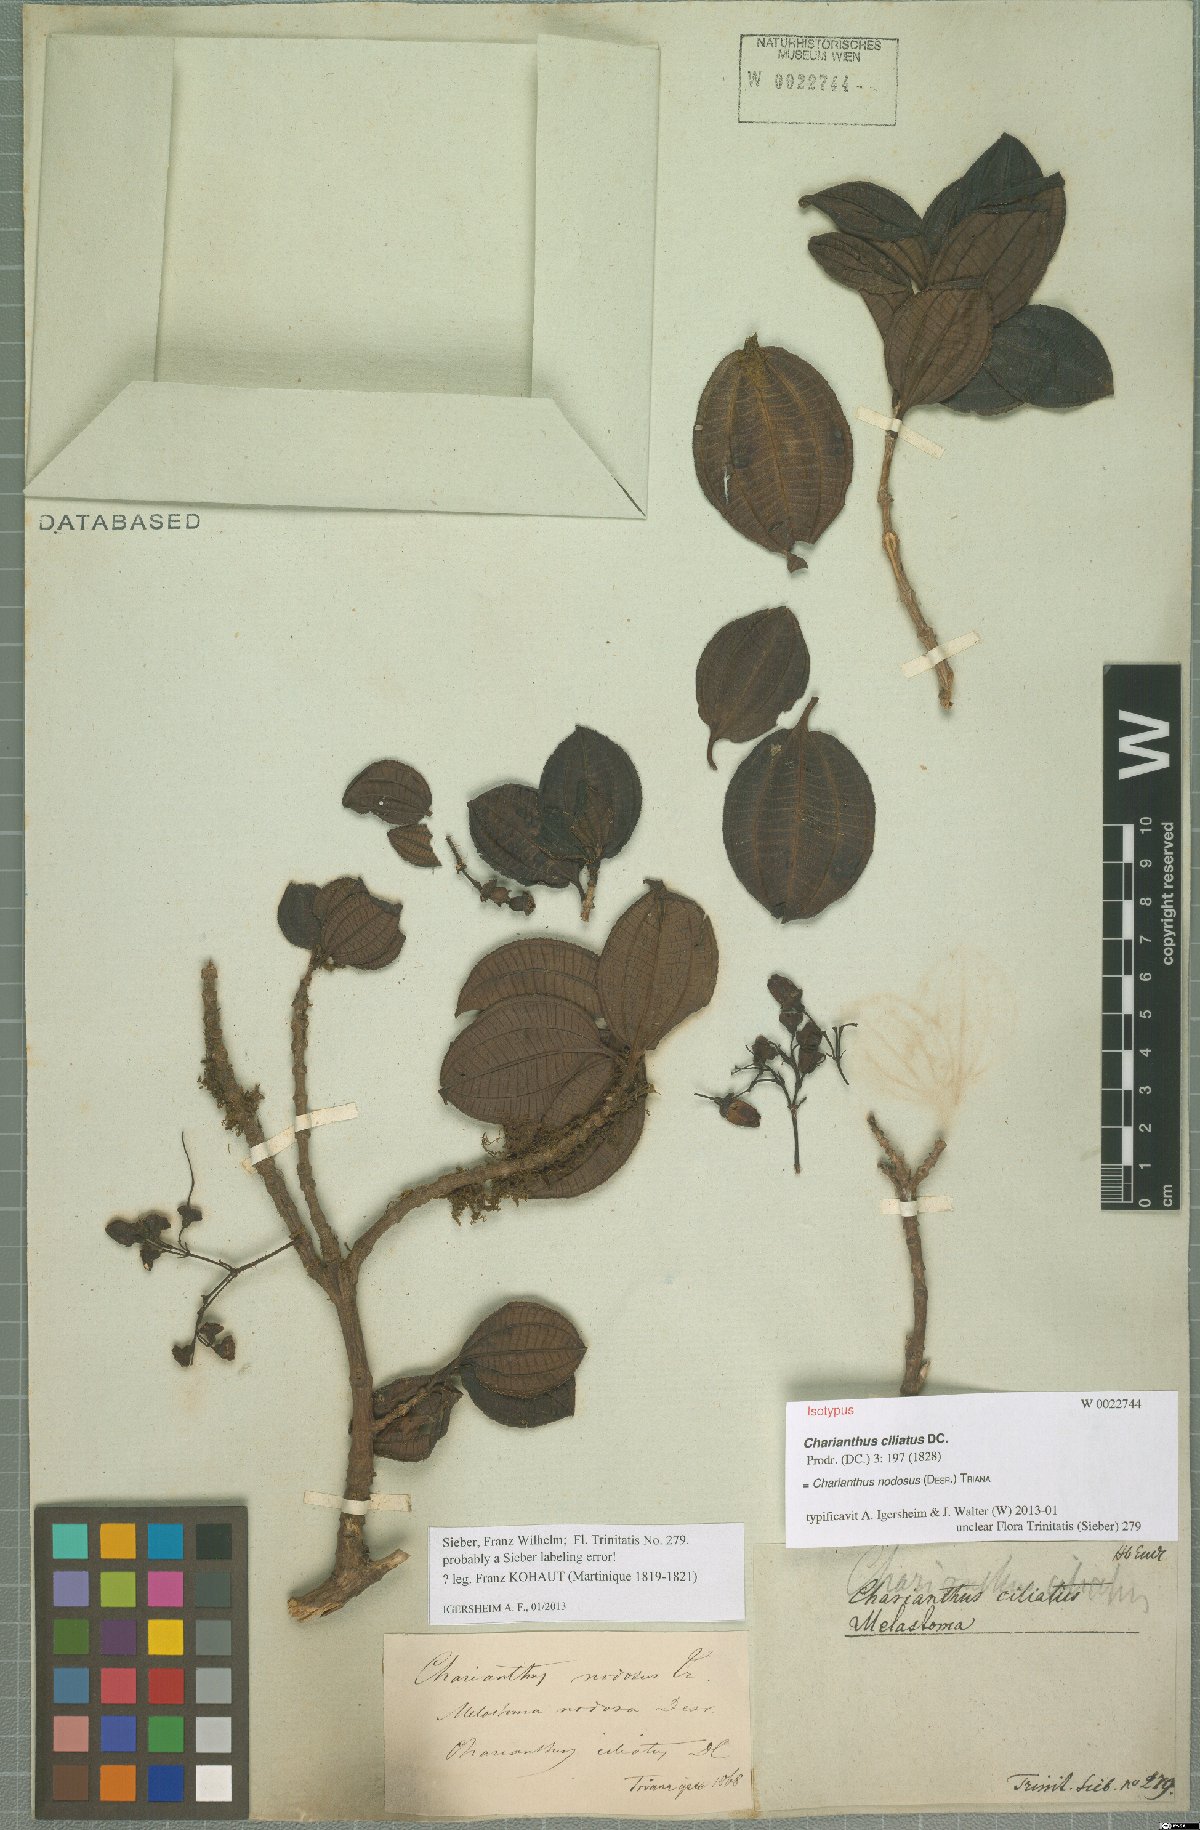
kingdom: Plantae
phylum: Tracheophyta
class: Magnoliopsida
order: Myrtales
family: Melastomataceae
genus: Miconia
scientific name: Miconia leblondii
